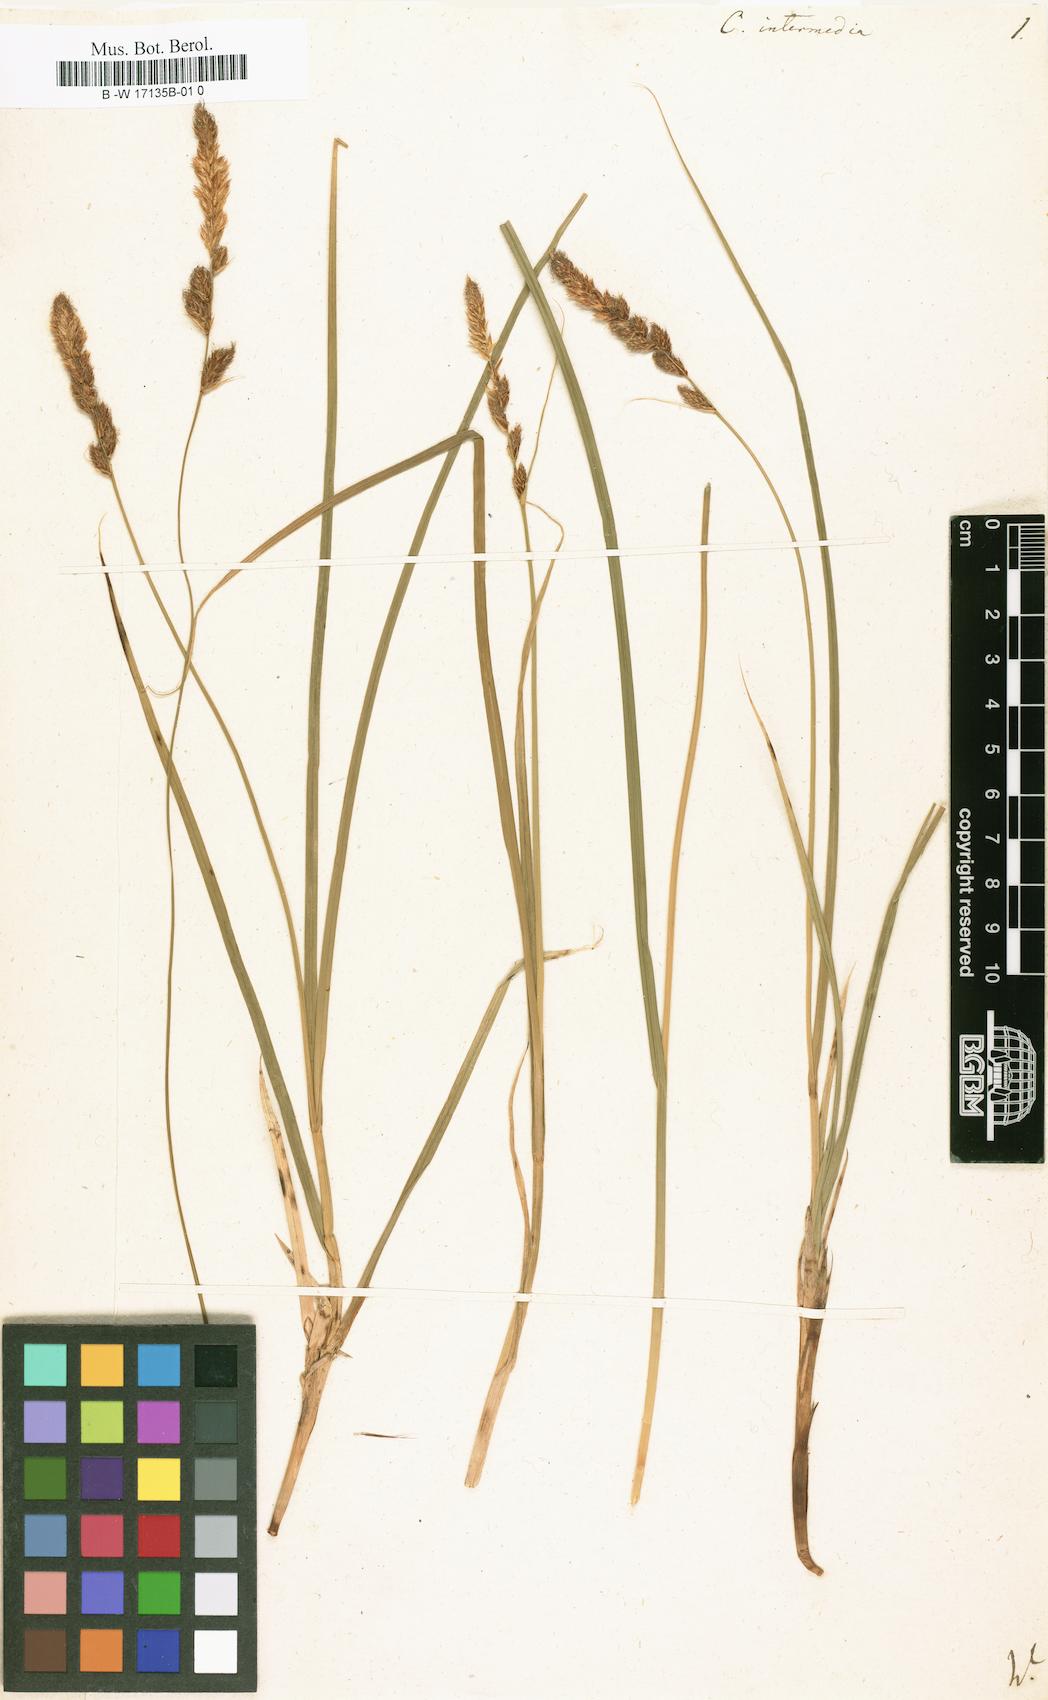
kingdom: Plantae
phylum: Tracheophyta
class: Liliopsida
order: Poales
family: Cyperaceae
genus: Carex
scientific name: Carex muricata
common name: Rough sedge
